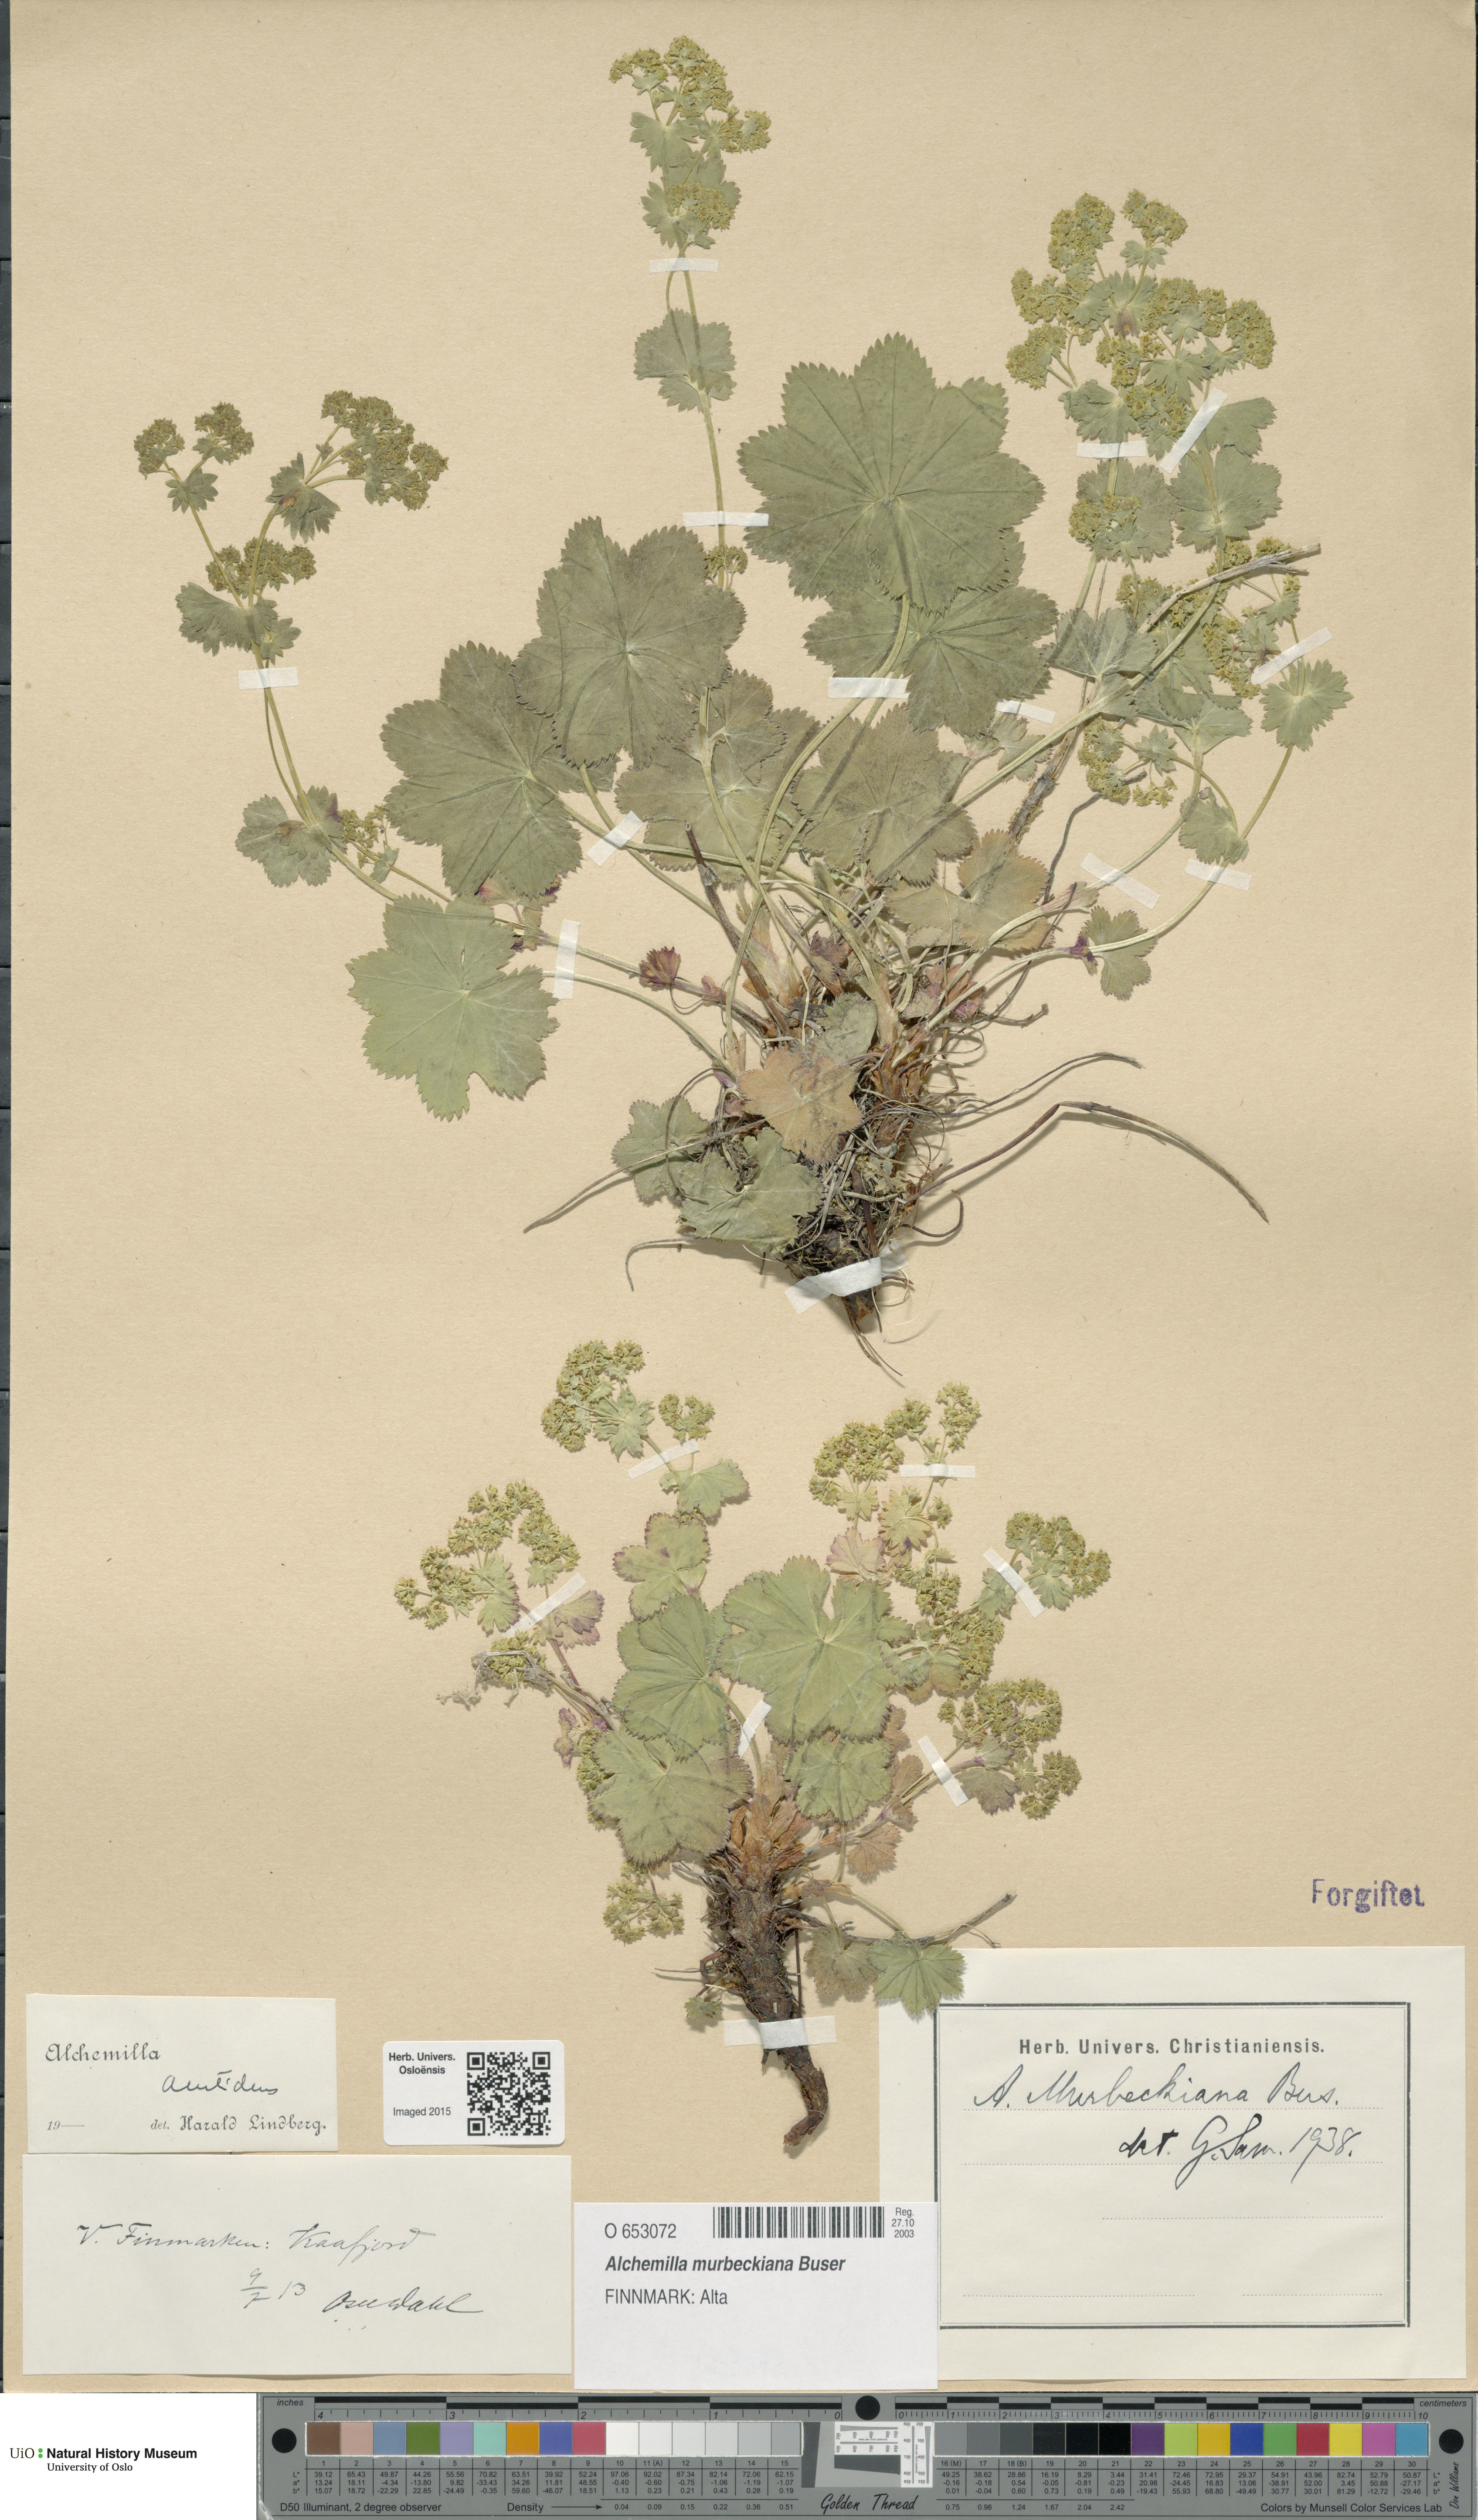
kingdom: Plantae
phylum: Tracheophyta
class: Magnoliopsida
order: Rosales
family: Rosaceae
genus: Alchemilla
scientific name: Alchemilla murbeckiana
